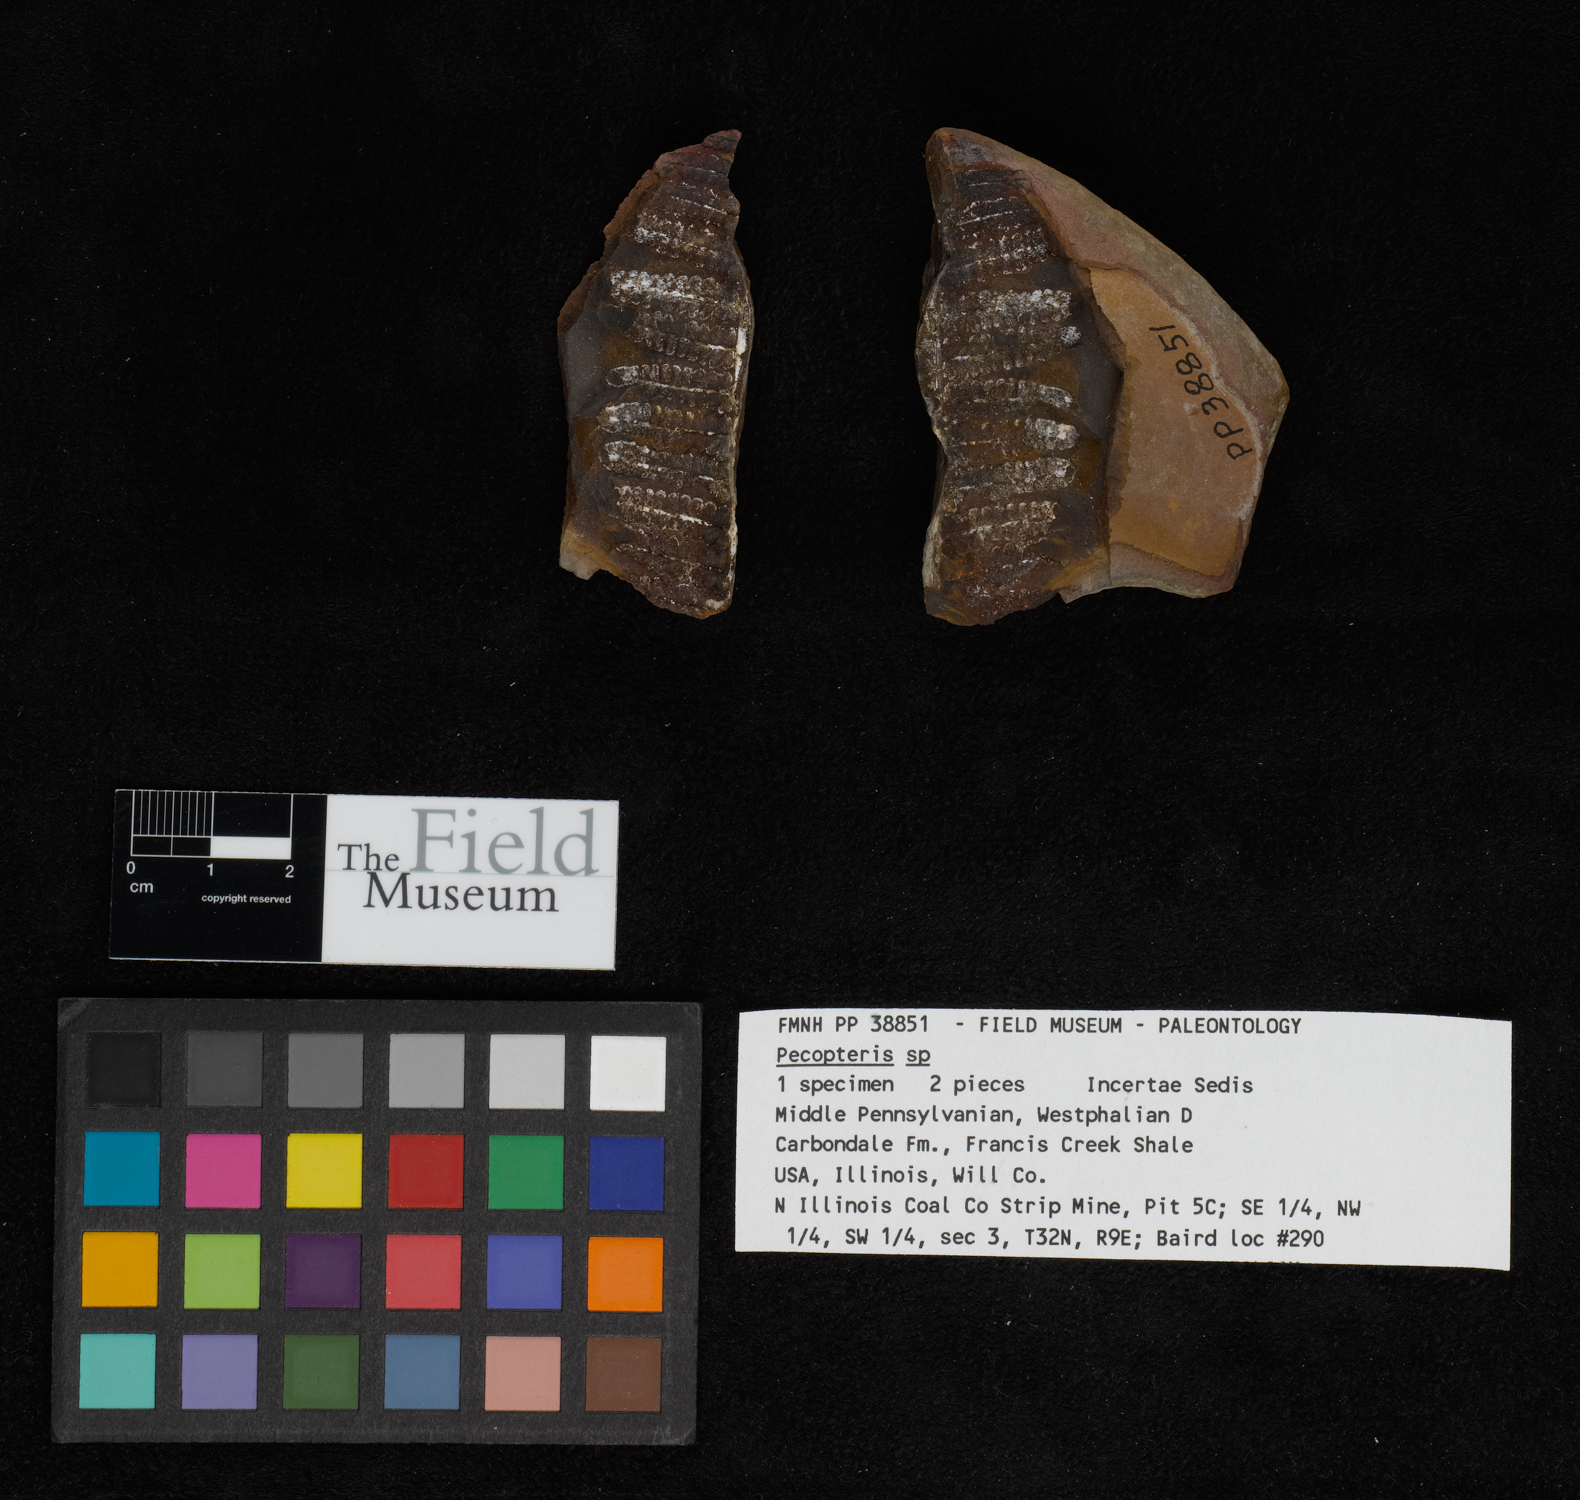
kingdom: Plantae
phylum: Tracheophyta
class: Polypodiopsida
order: Marattiales
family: Asterothecaceae
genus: Pecopteris
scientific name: Pecopteris
